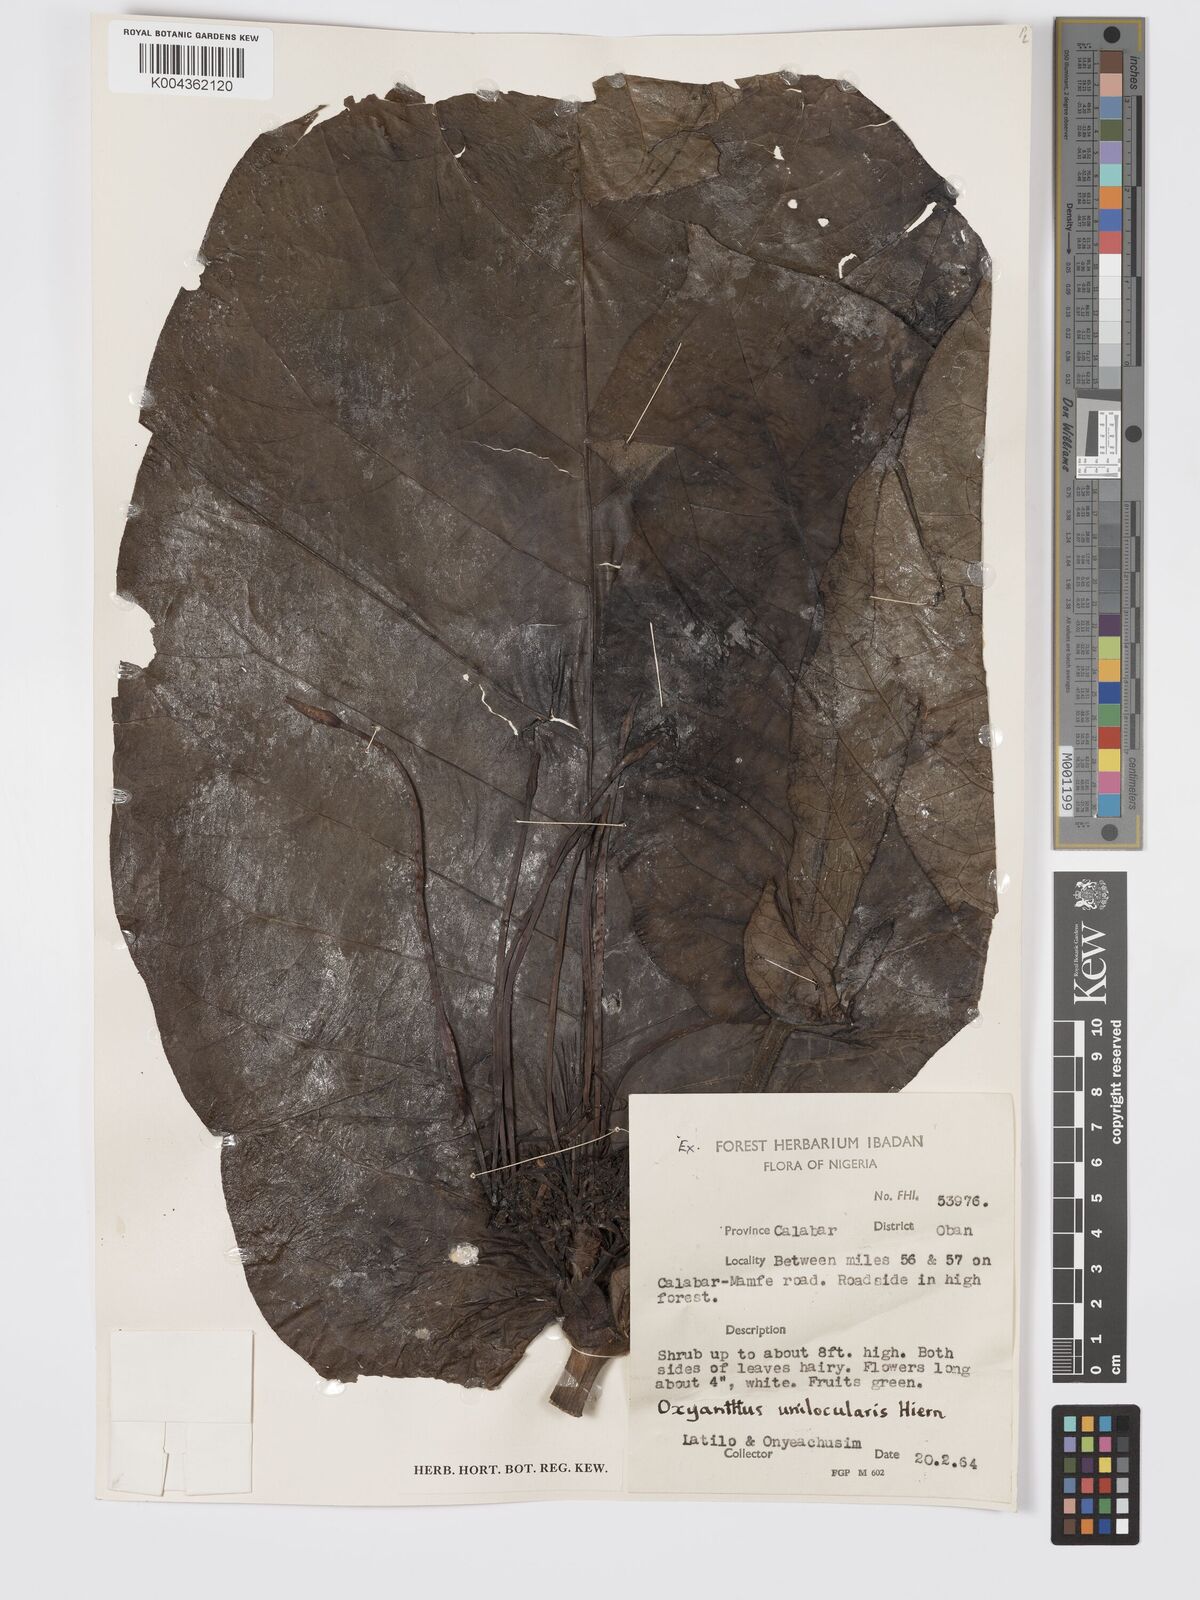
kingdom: Plantae
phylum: Tracheophyta
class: Magnoliopsida
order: Gentianales
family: Rubiaceae
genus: Oxyanthus
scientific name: Oxyanthus unilocularis
